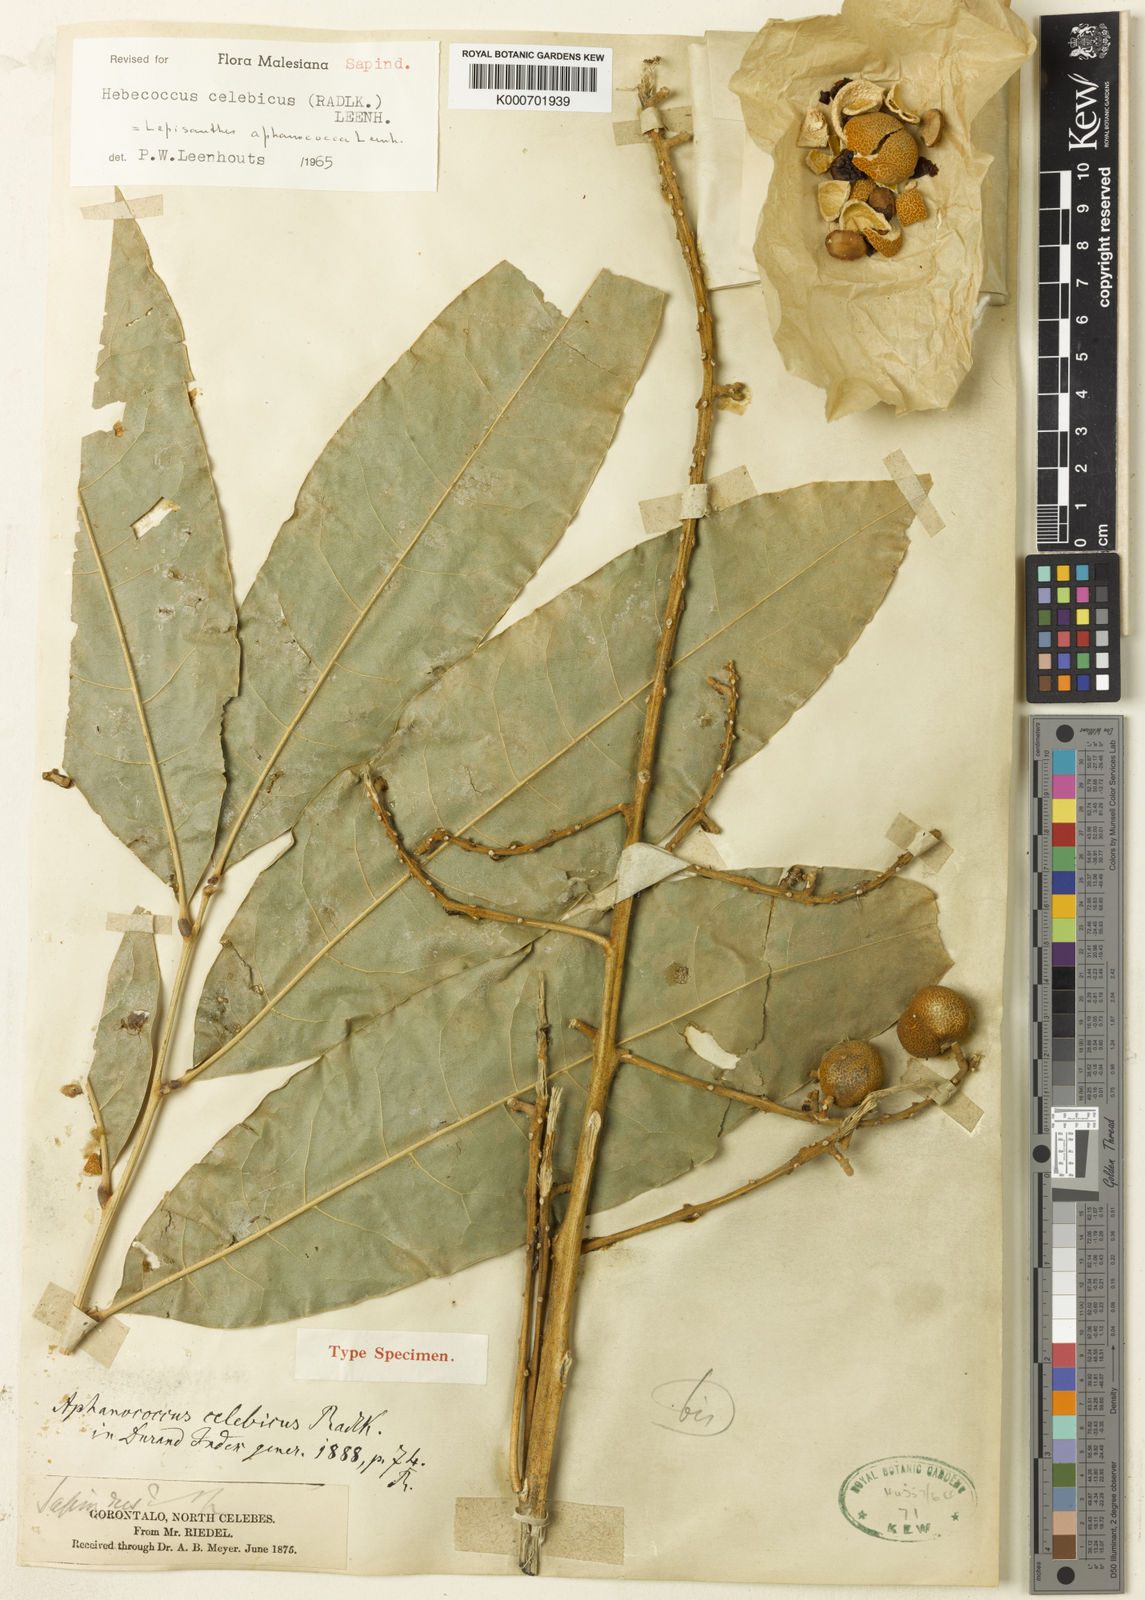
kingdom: Plantae
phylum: Tracheophyta
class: Magnoliopsida
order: Sapindales
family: Sapindaceae
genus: Lepisanthes
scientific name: Lepisanthes falcata
